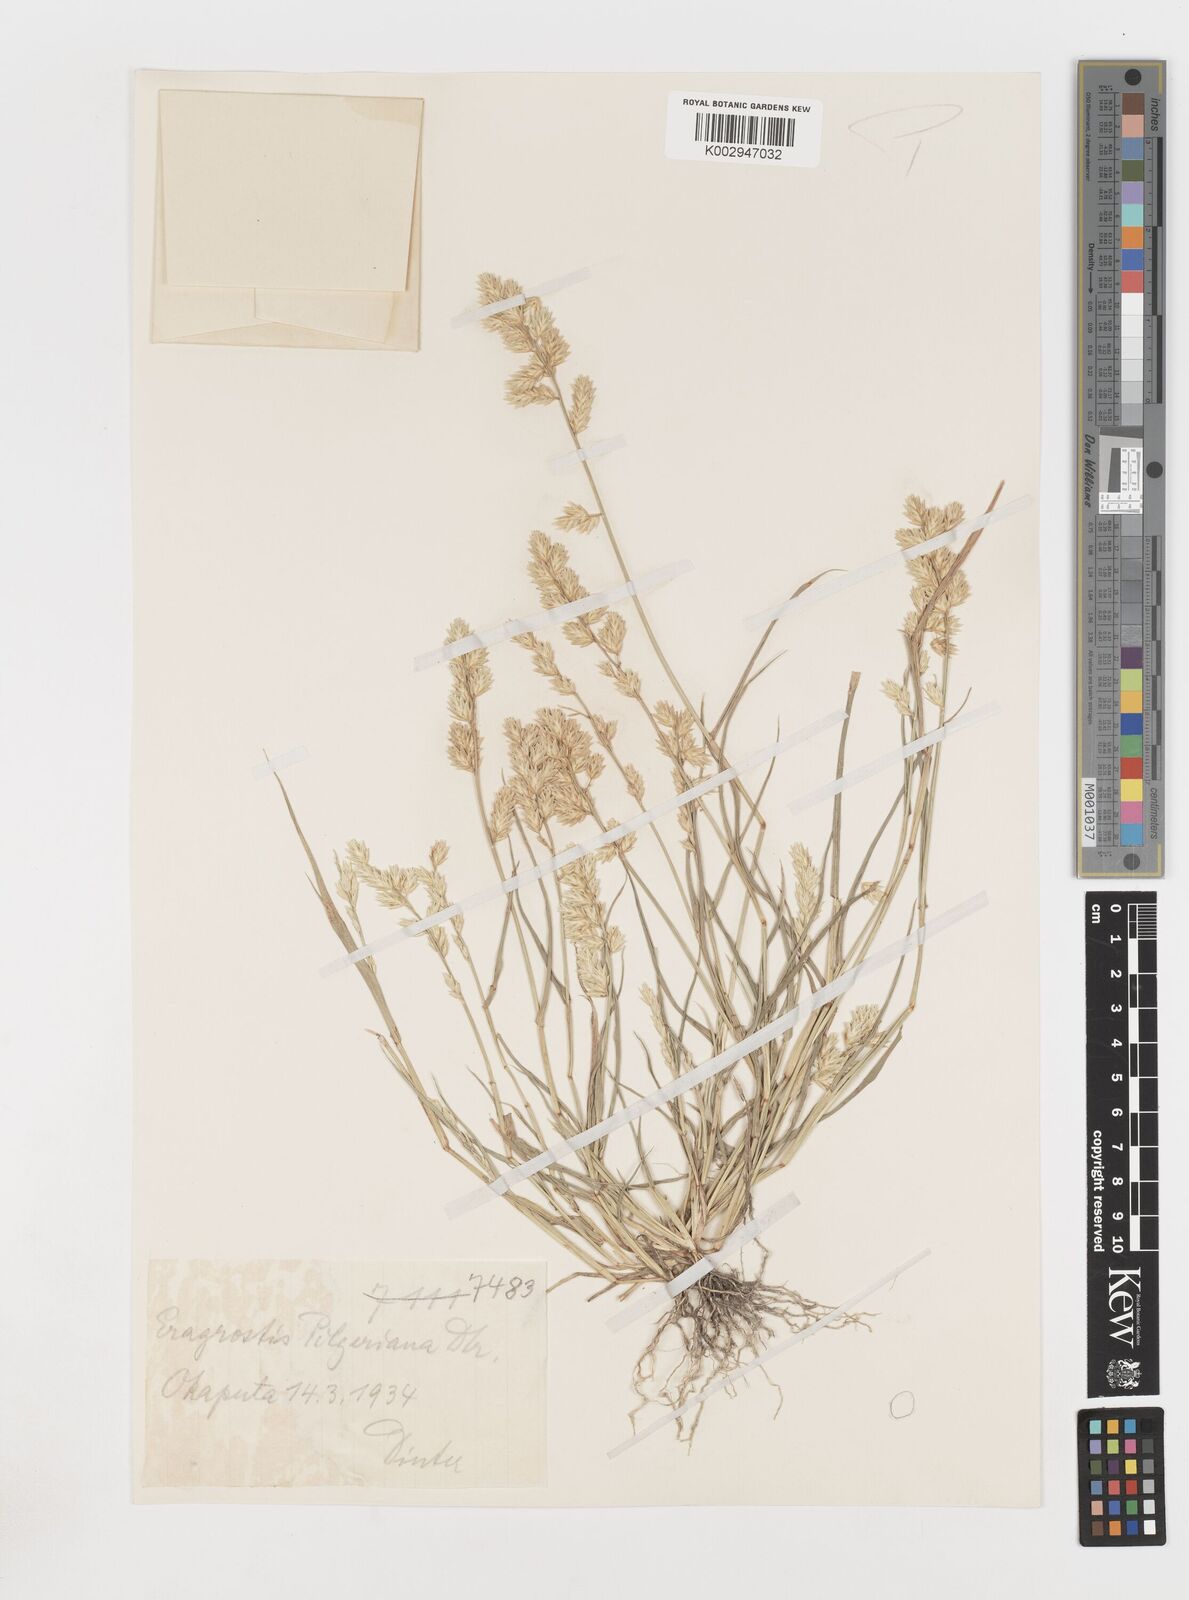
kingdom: Plantae
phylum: Tracheophyta
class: Liliopsida
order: Poales
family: Poaceae
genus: Eragrostis
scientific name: Eragrostis pilgeriana
